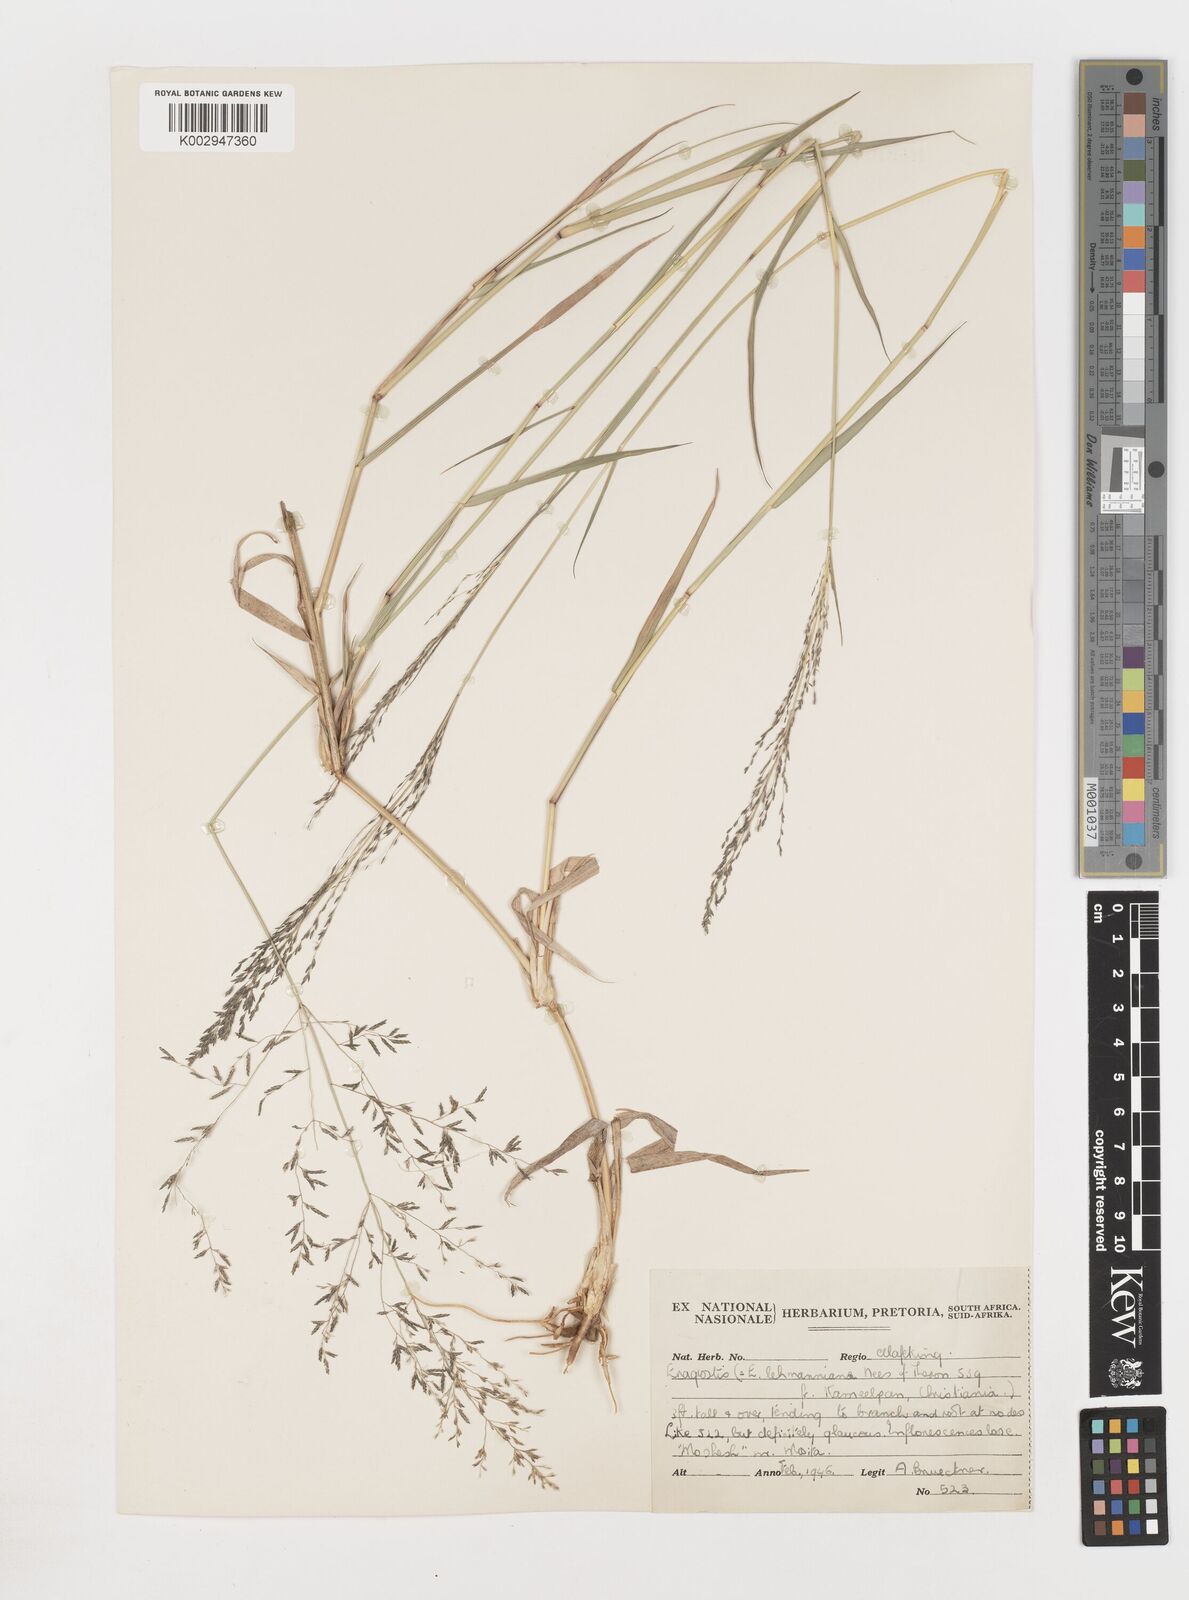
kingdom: Plantae
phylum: Tracheophyta
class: Liliopsida
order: Poales
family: Poaceae
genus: Eragrostis
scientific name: Eragrostis
